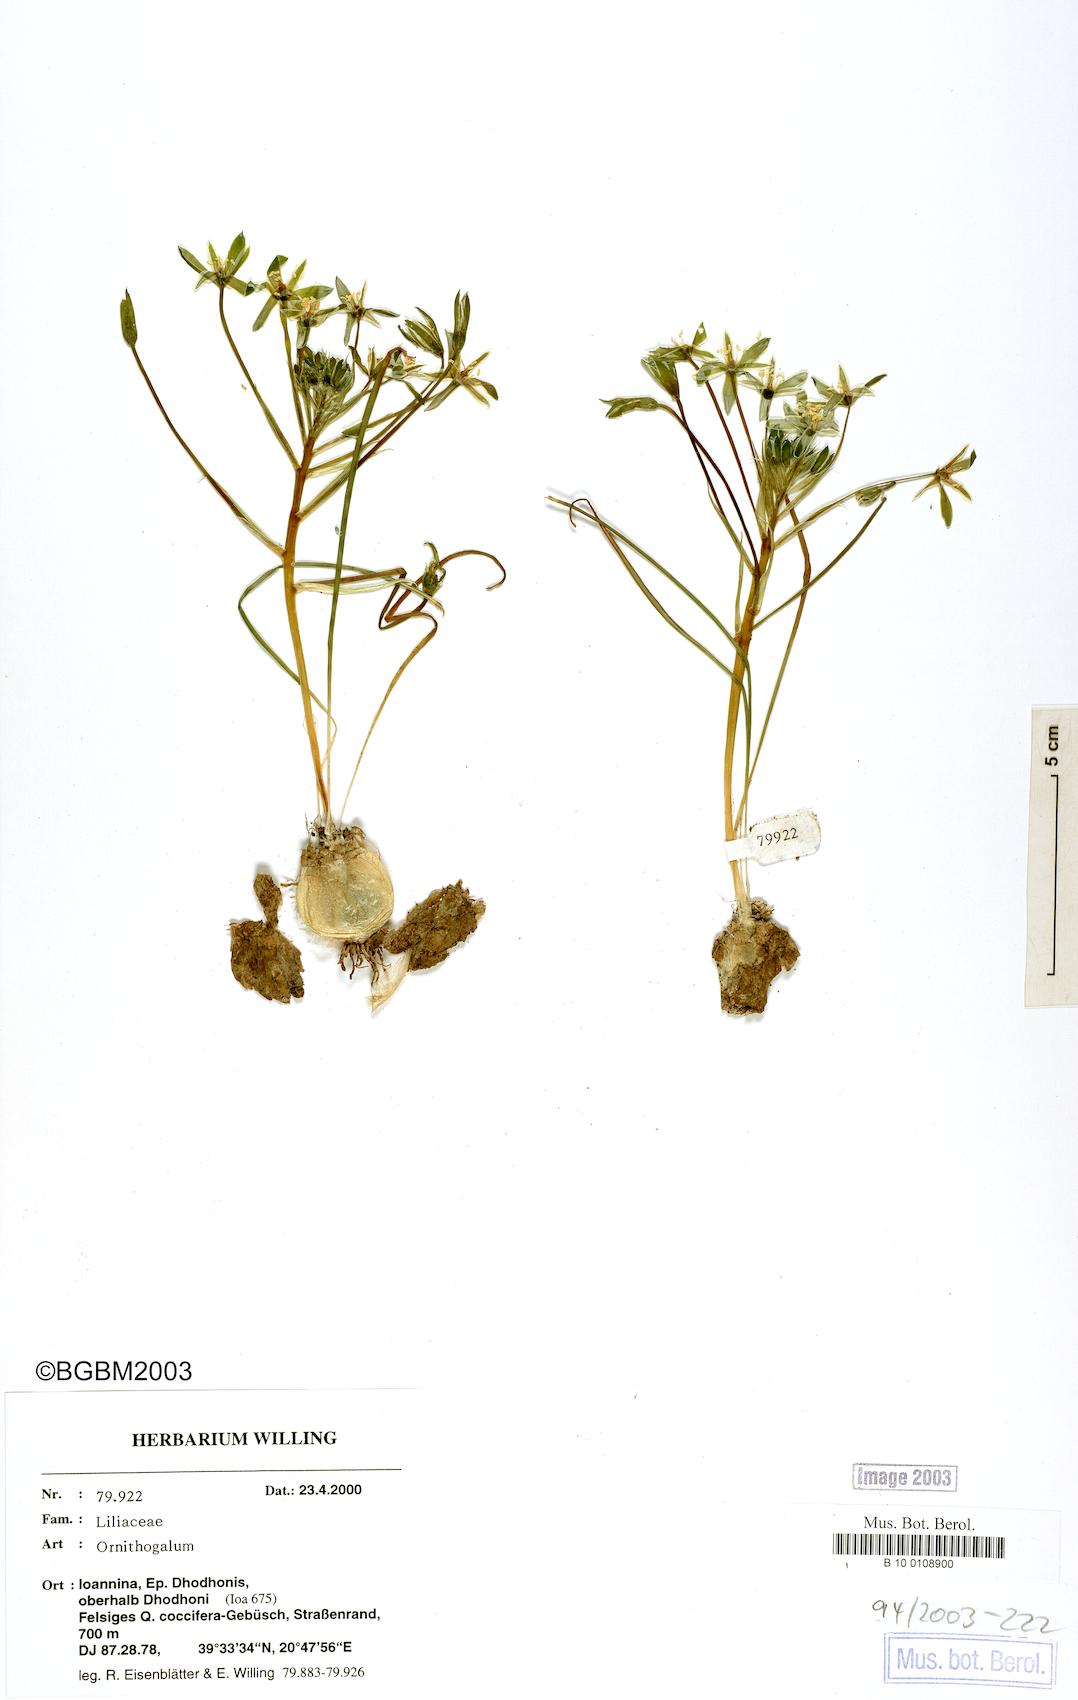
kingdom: Plantae
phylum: Tracheophyta
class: Liliopsida
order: Asparagales
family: Asparagaceae
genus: Ornithogalum
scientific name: Ornithogalum
